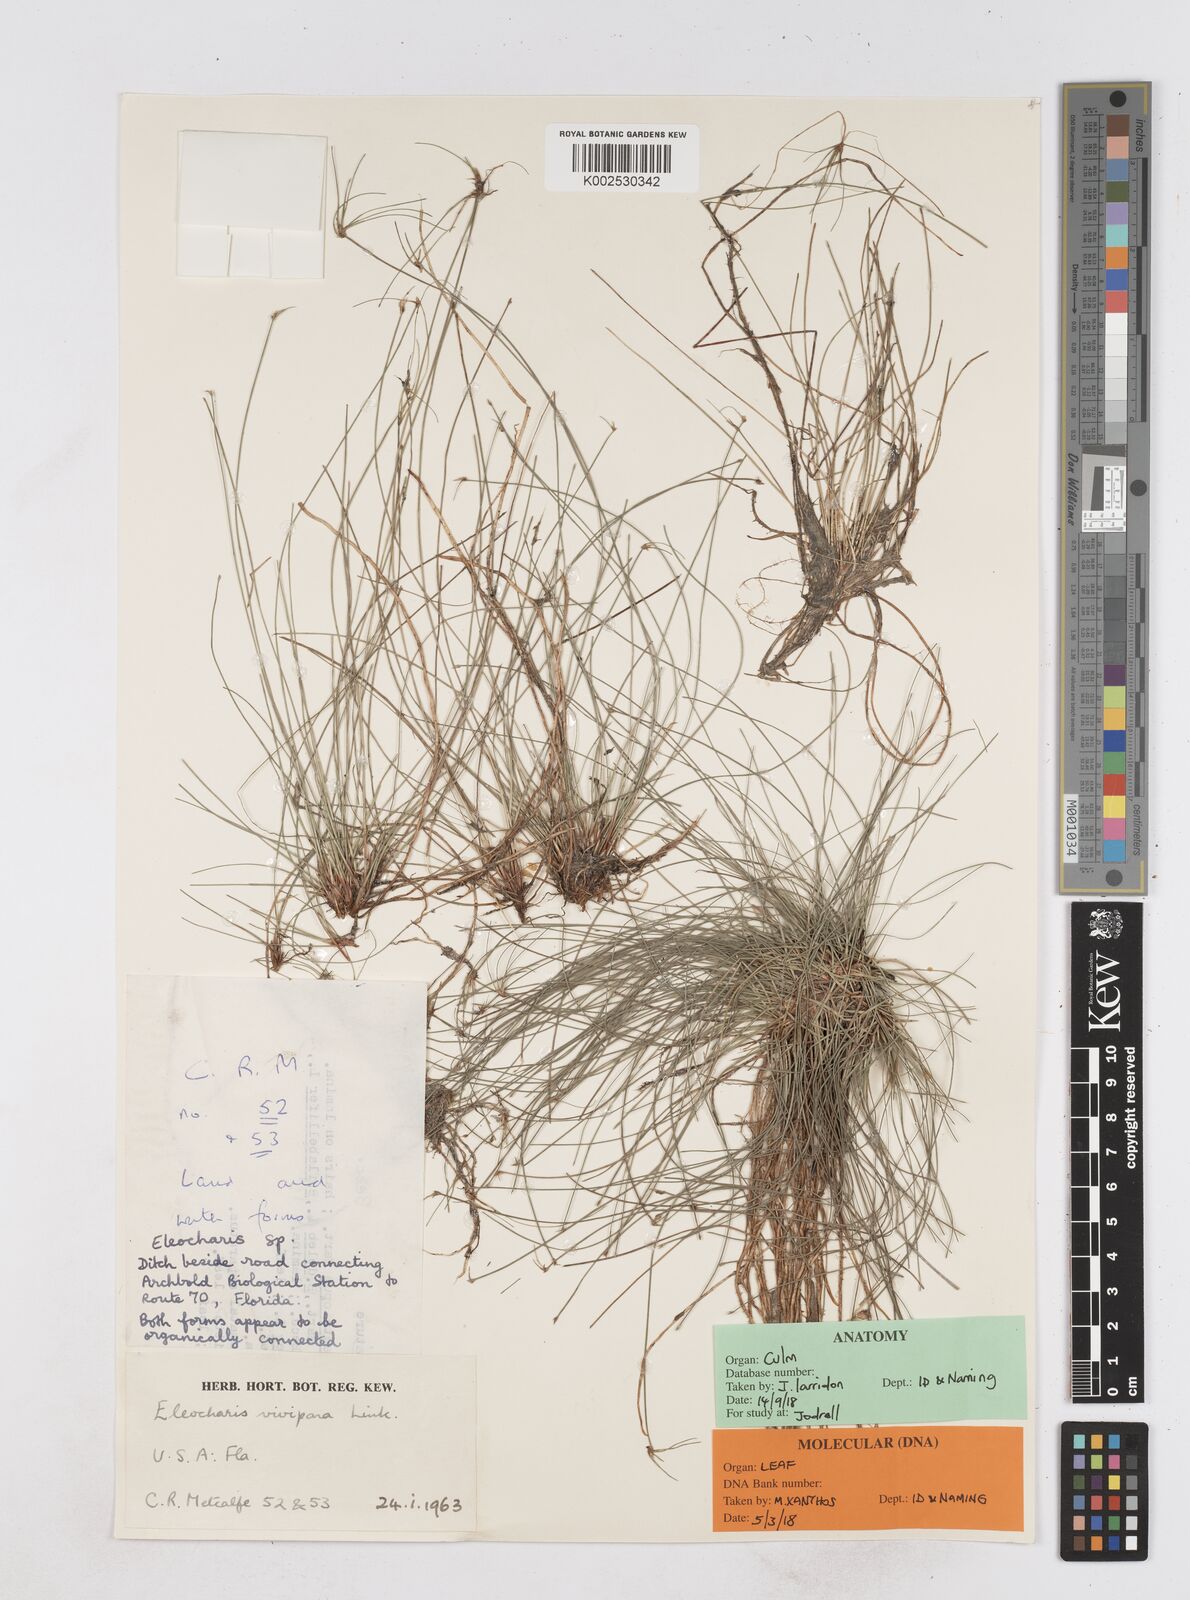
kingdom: Plantae
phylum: Tracheophyta
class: Liliopsida
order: Poales
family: Cyperaceae
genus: Eleocharis
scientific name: Eleocharis
